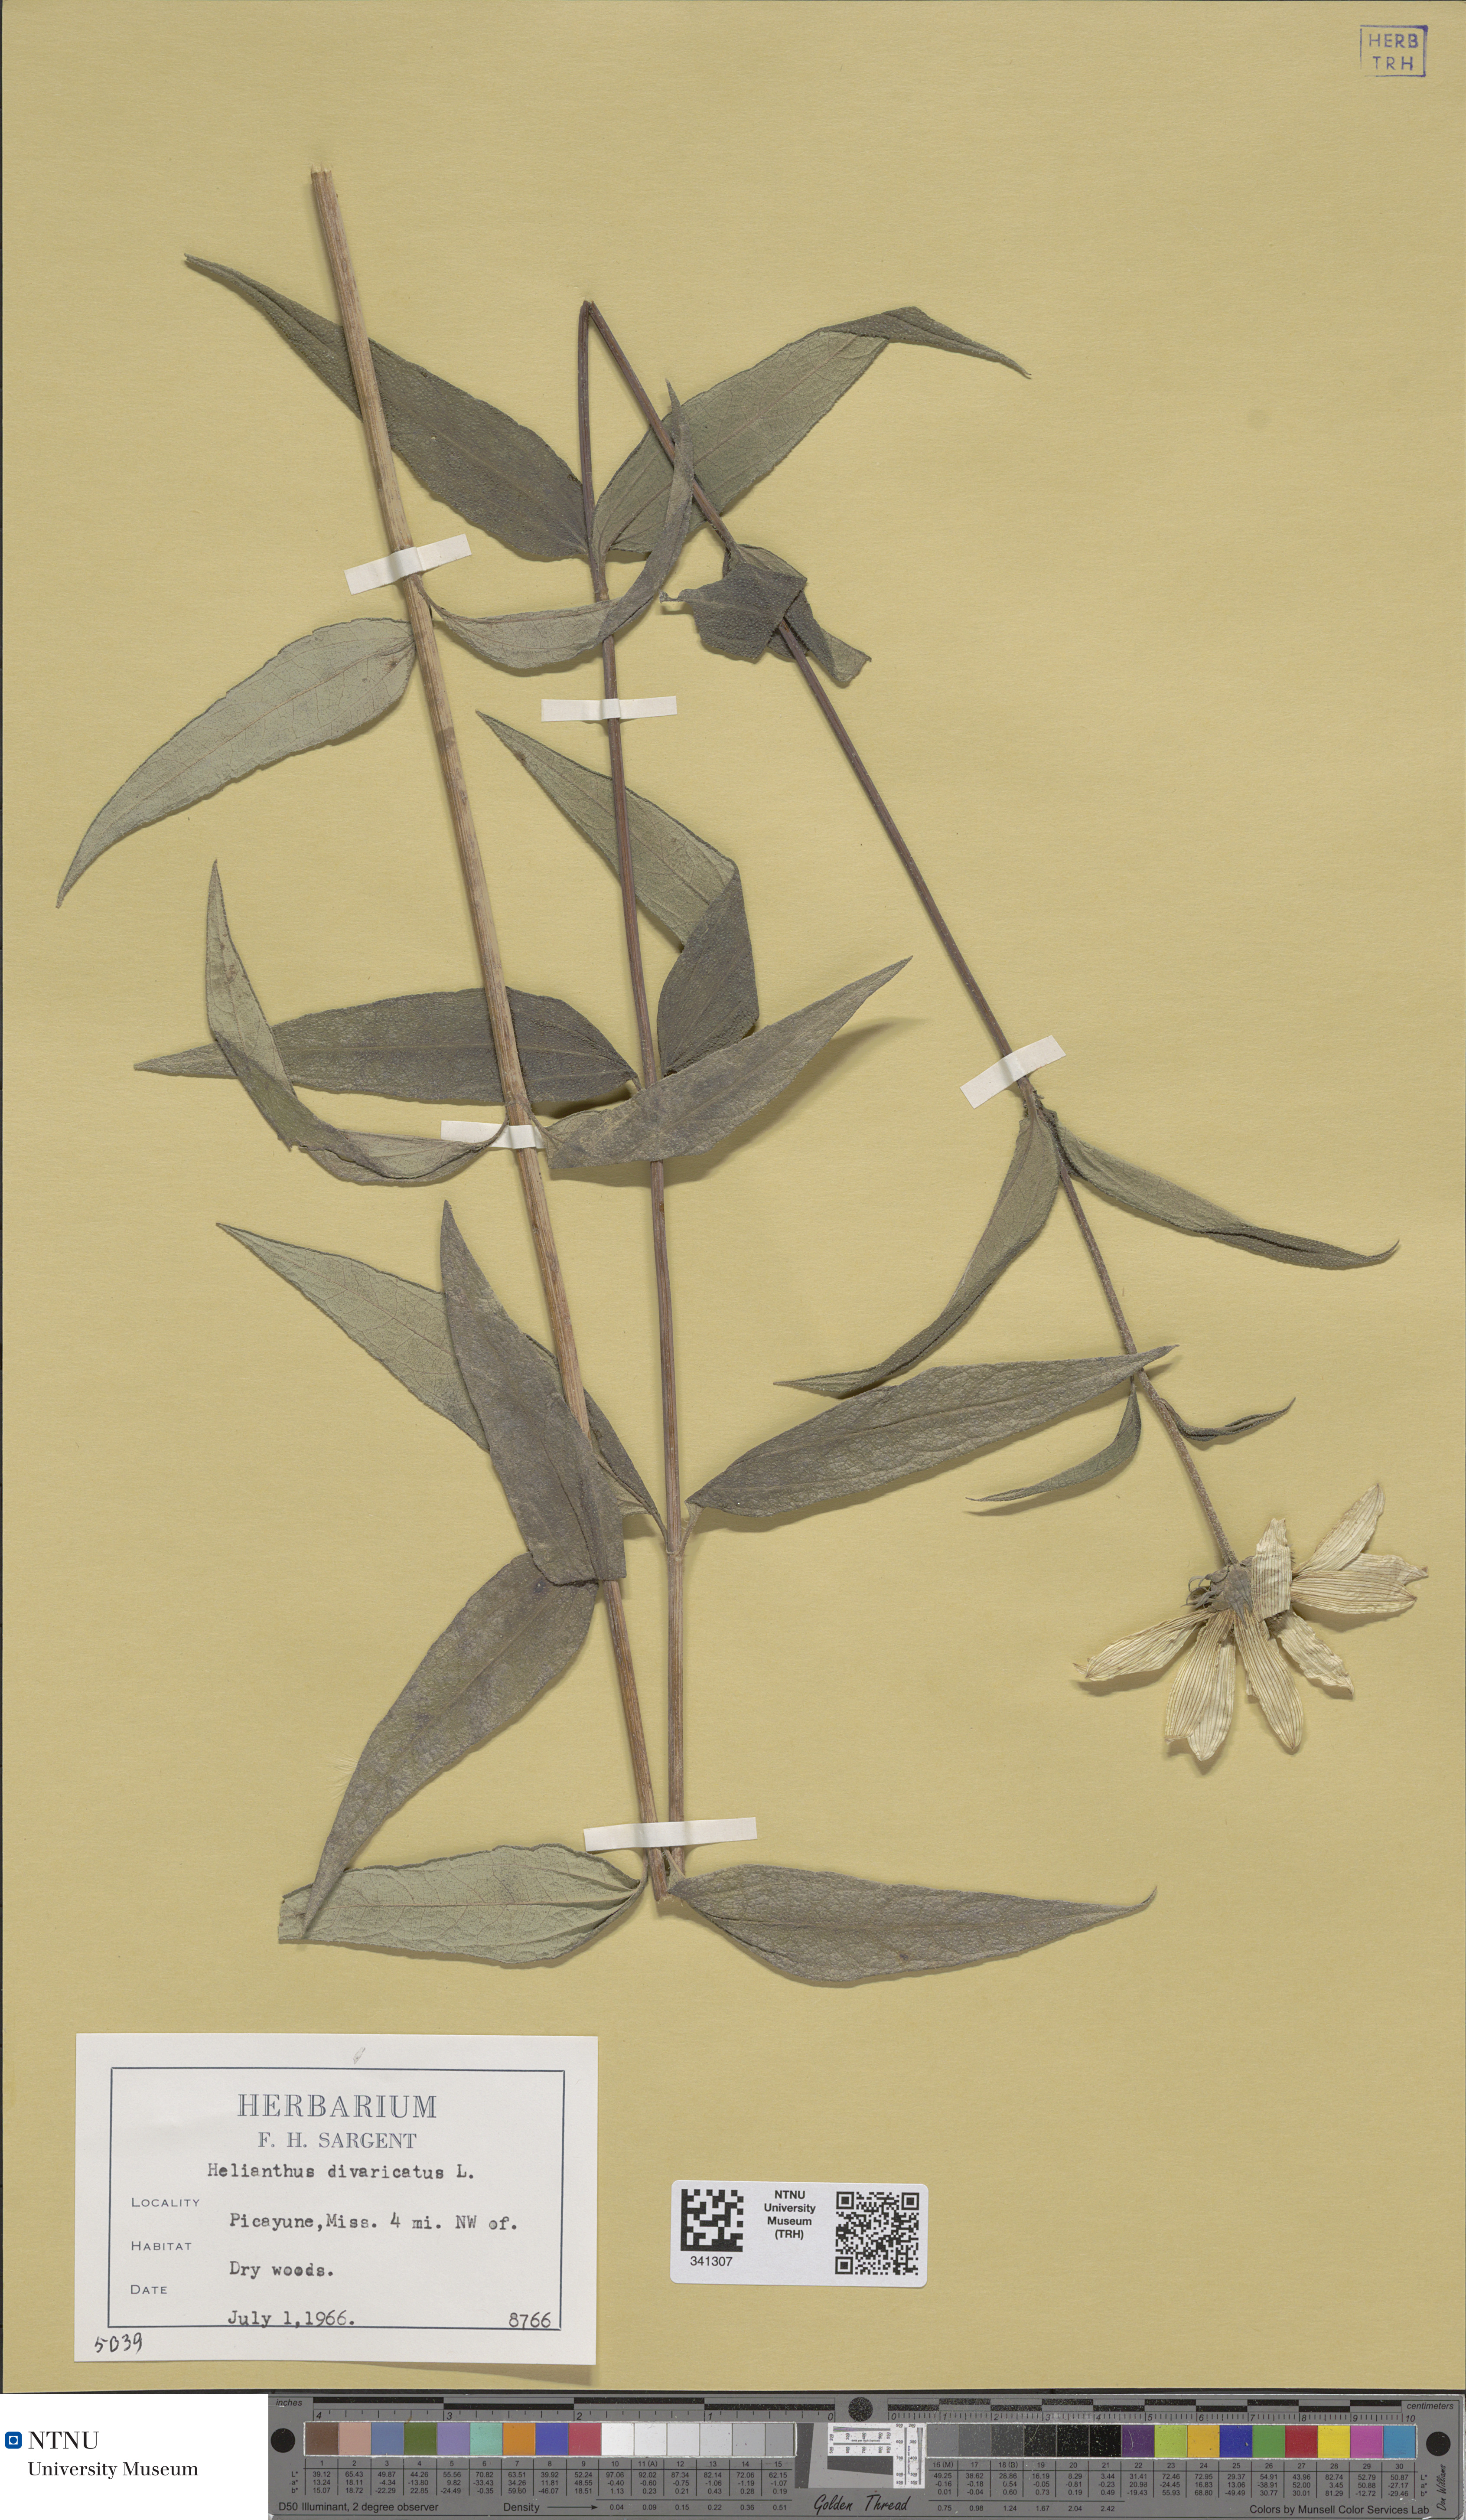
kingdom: Plantae
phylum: Tracheophyta
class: Magnoliopsida
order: Asterales
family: Asteraceae
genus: Helianthus
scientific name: Helianthus divaricatus
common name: Divergent sunflower
